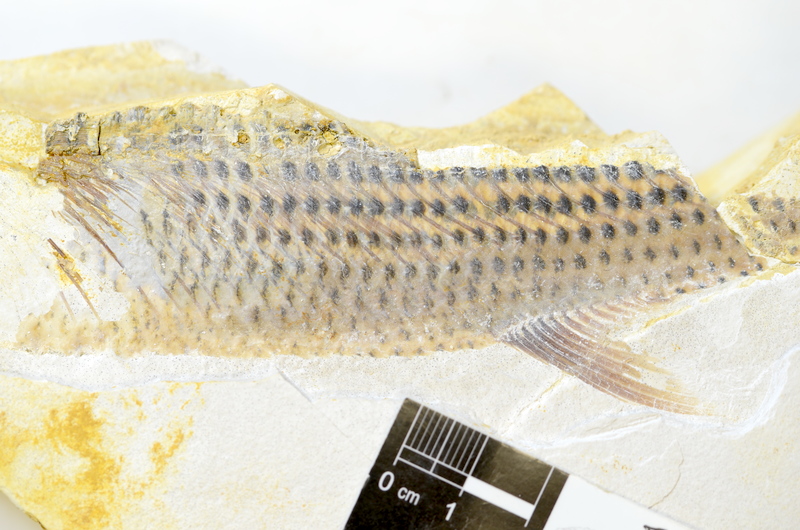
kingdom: Animalia
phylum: Chordata
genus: Thrissops
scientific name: Thrissops formosus
